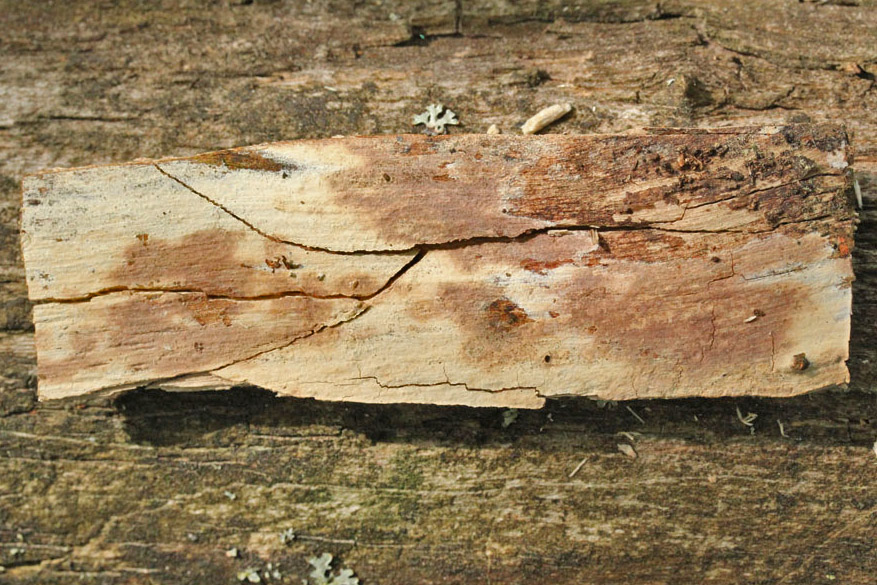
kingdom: Fungi
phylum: Basidiomycota
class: Agaricomycetes
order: Polyporales
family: Hyphodermataceae
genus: Hyphoderma
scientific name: Hyphoderma roseocremeum
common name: lillaplettet kalkskind
